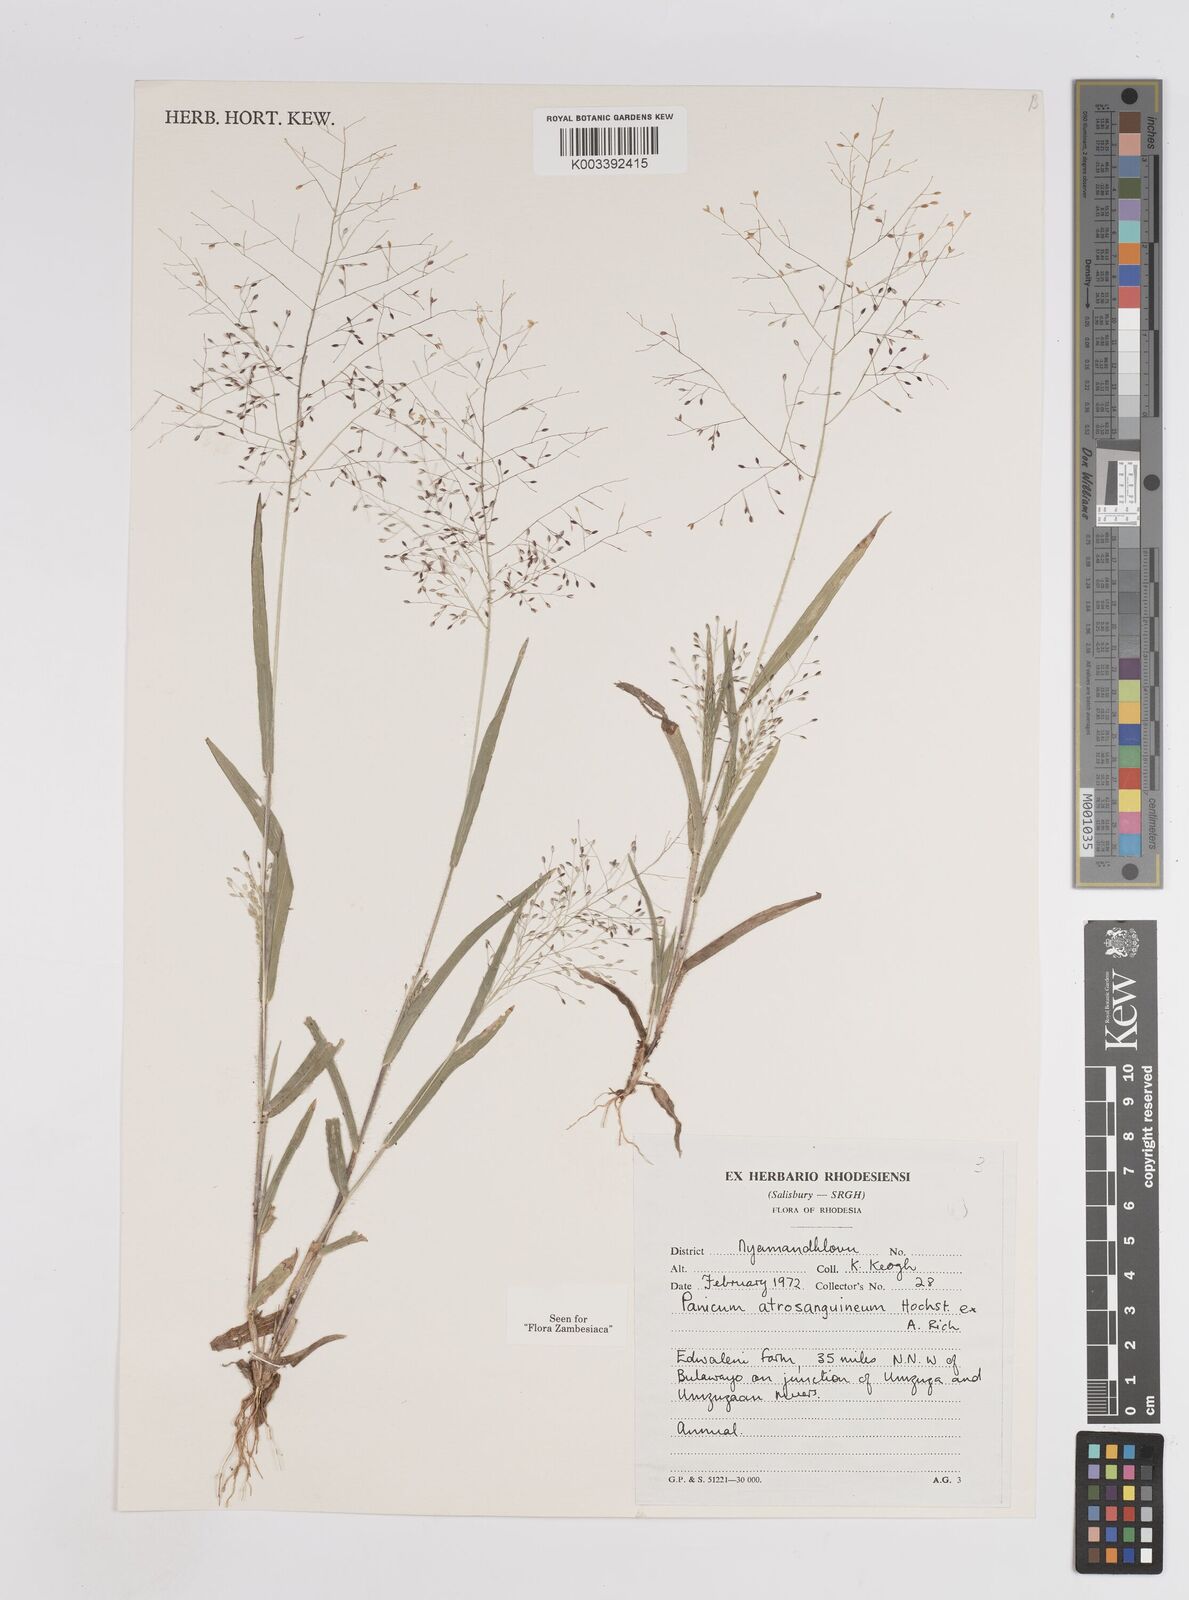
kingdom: Plantae
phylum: Tracheophyta
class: Liliopsida
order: Poales
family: Poaceae
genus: Panicum
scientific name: Panicum atrosanguineum
